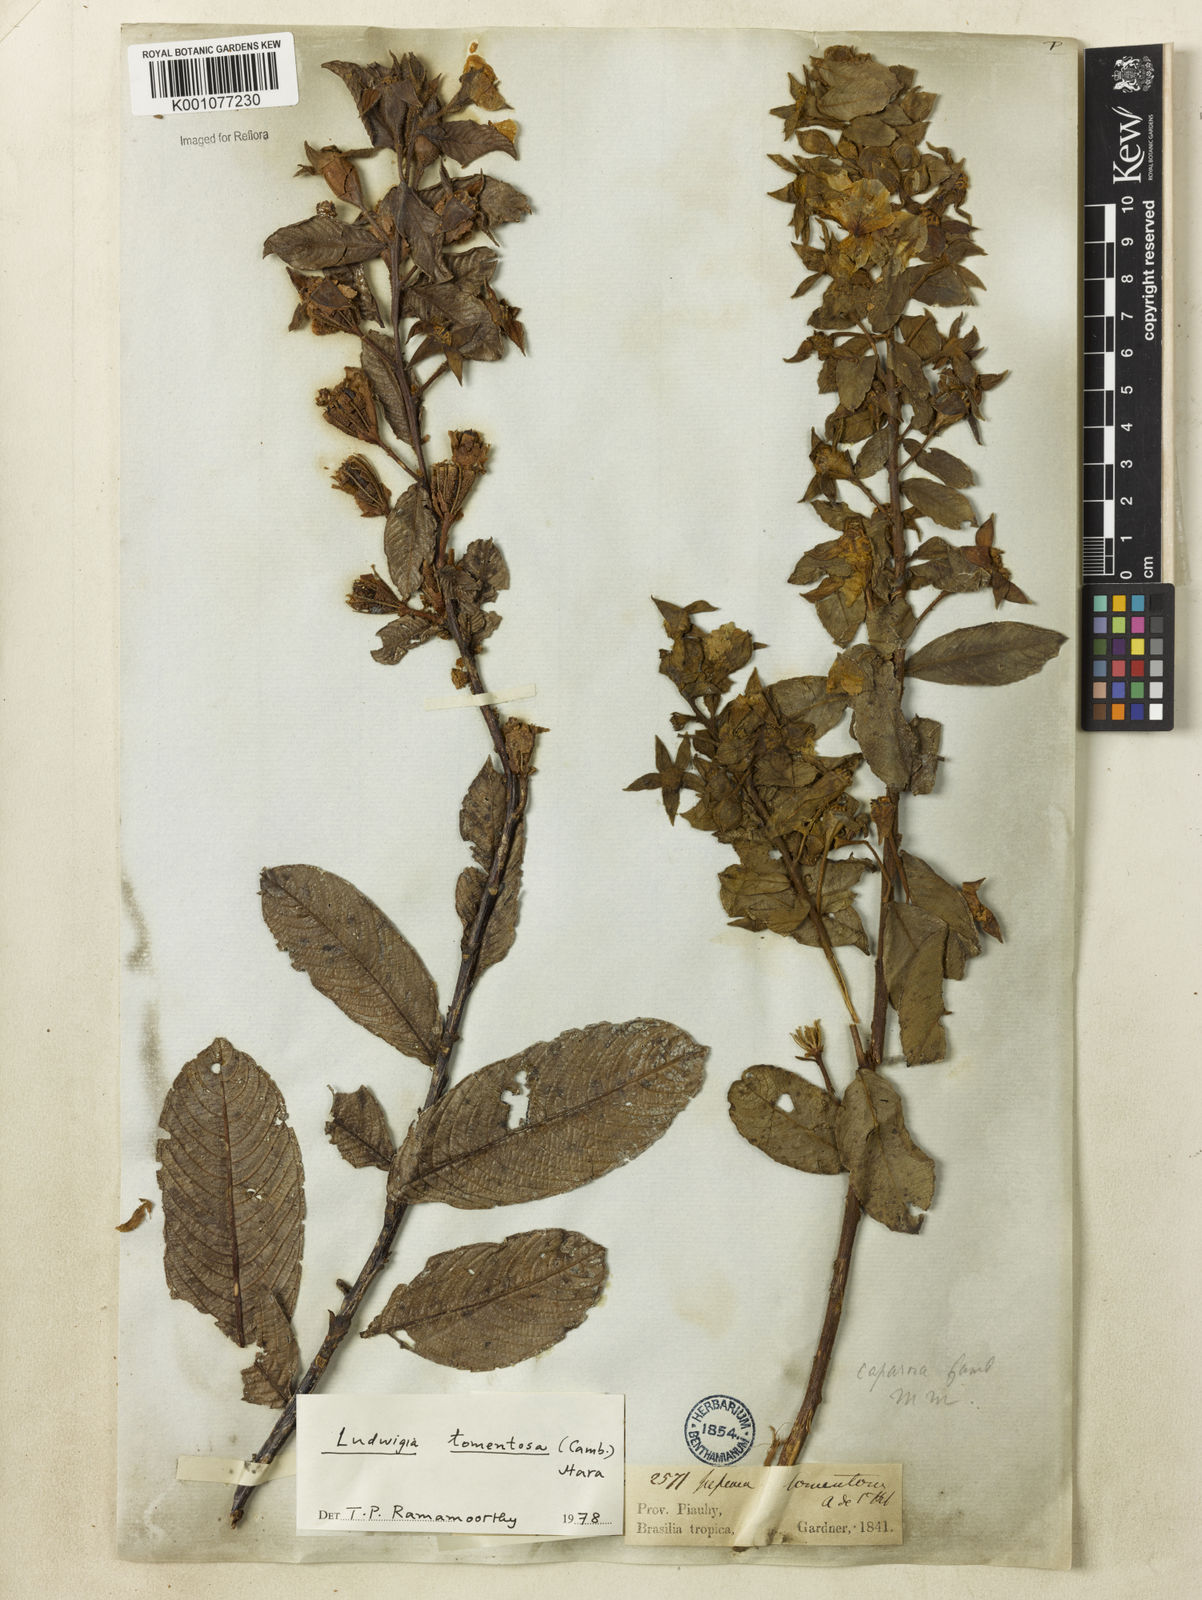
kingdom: Plantae
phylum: Tracheophyta
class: Magnoliopsida
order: Myrtales
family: Onagraceae
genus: Ludwigia
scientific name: Ludwigia tomentosa
